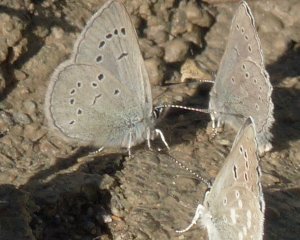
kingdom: Animalia
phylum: Arthropoda
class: Insecta
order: Lepidoptera
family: Lycaenidae
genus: Icaricia
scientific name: Icaricia icarioides
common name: Boisduval's Blue
